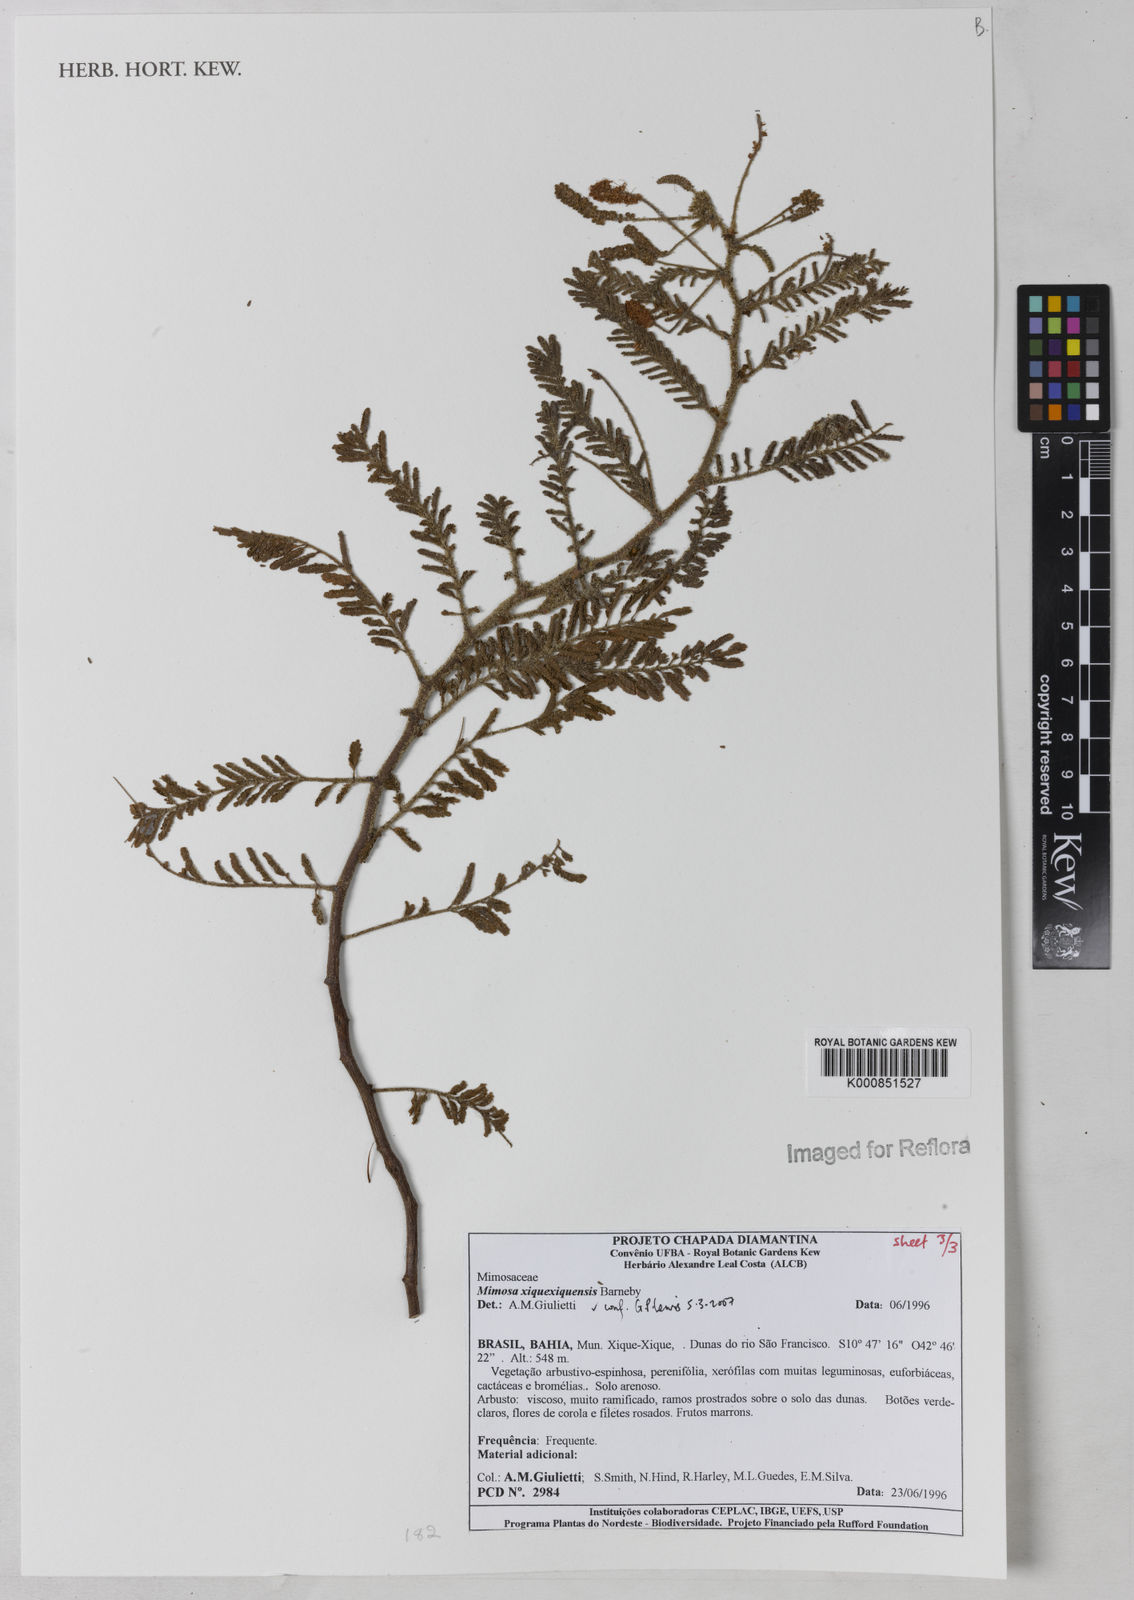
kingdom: Plantae
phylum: Tracheophyta
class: Magnoliopsida
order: Fabales
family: Fabaceae
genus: Mimosa
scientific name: Mimosa xiquexiquensis
